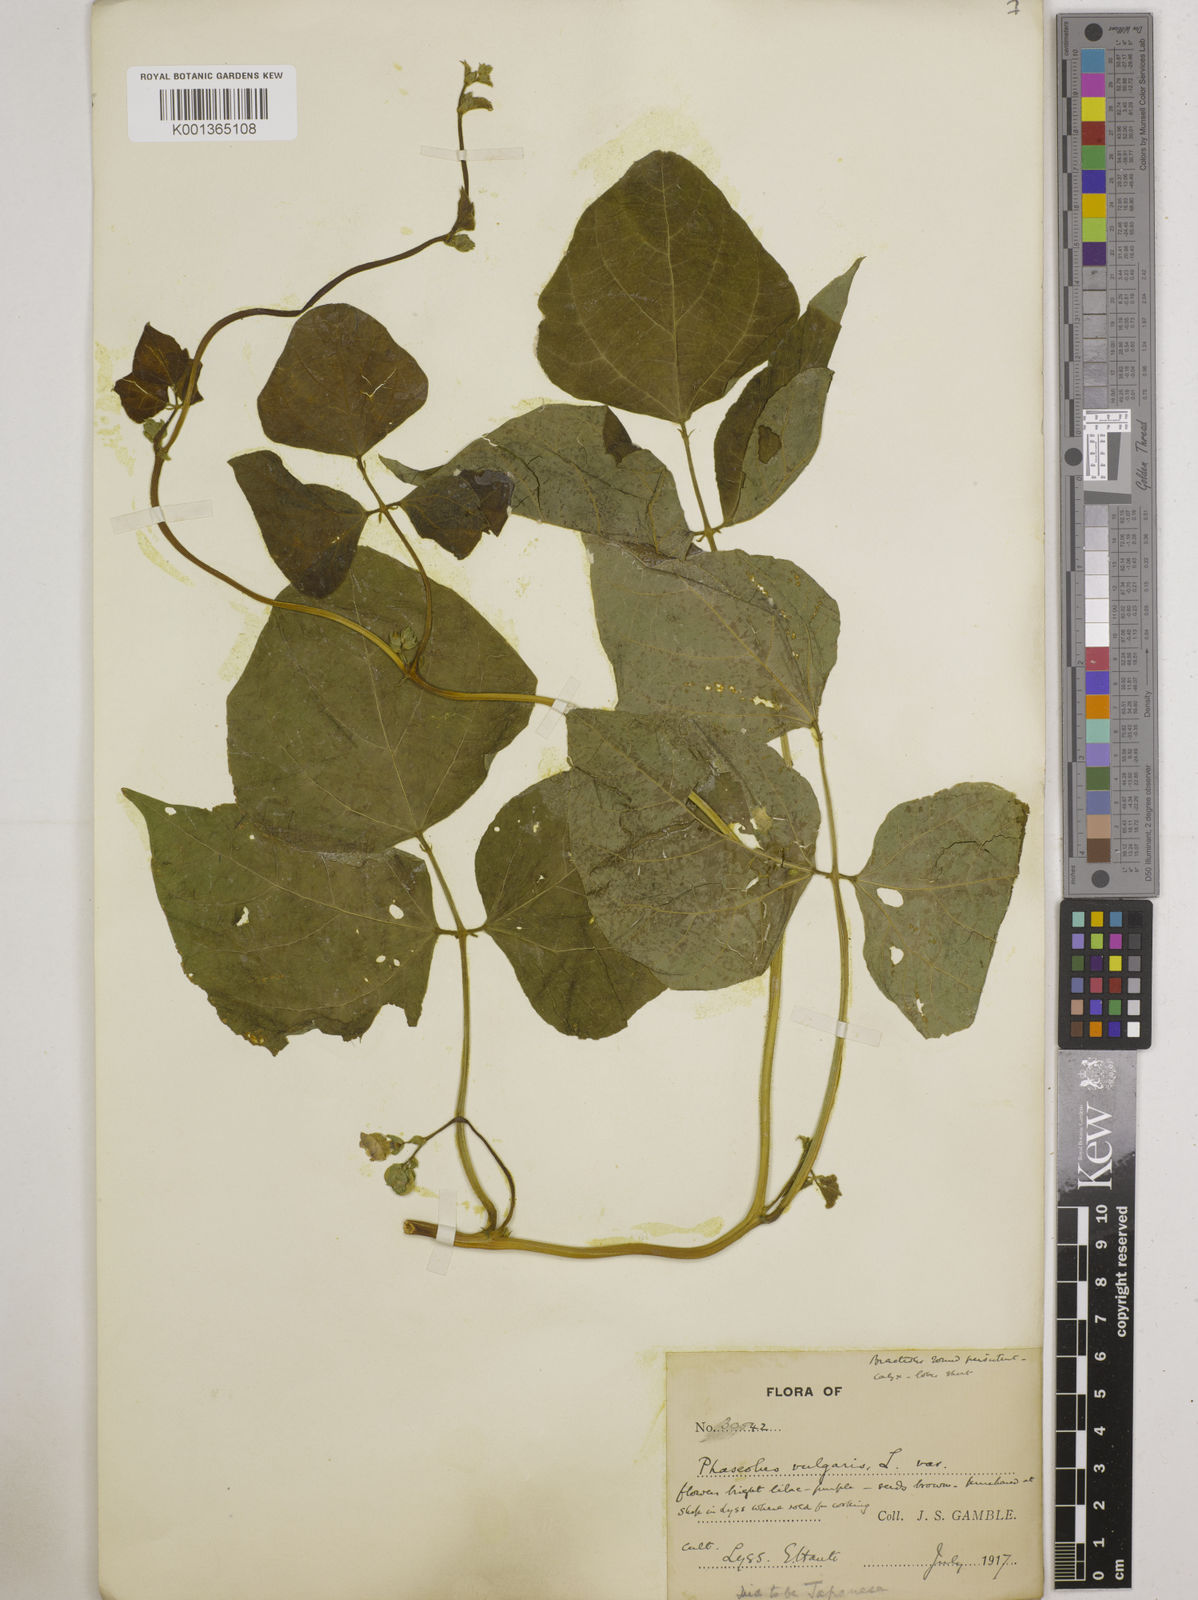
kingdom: Plantae
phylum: Tracheophyta
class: Magnoliopsida
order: Fabales
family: Fabaceae
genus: Phaseolus
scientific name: Phaseolus vulgaris
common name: Bean
